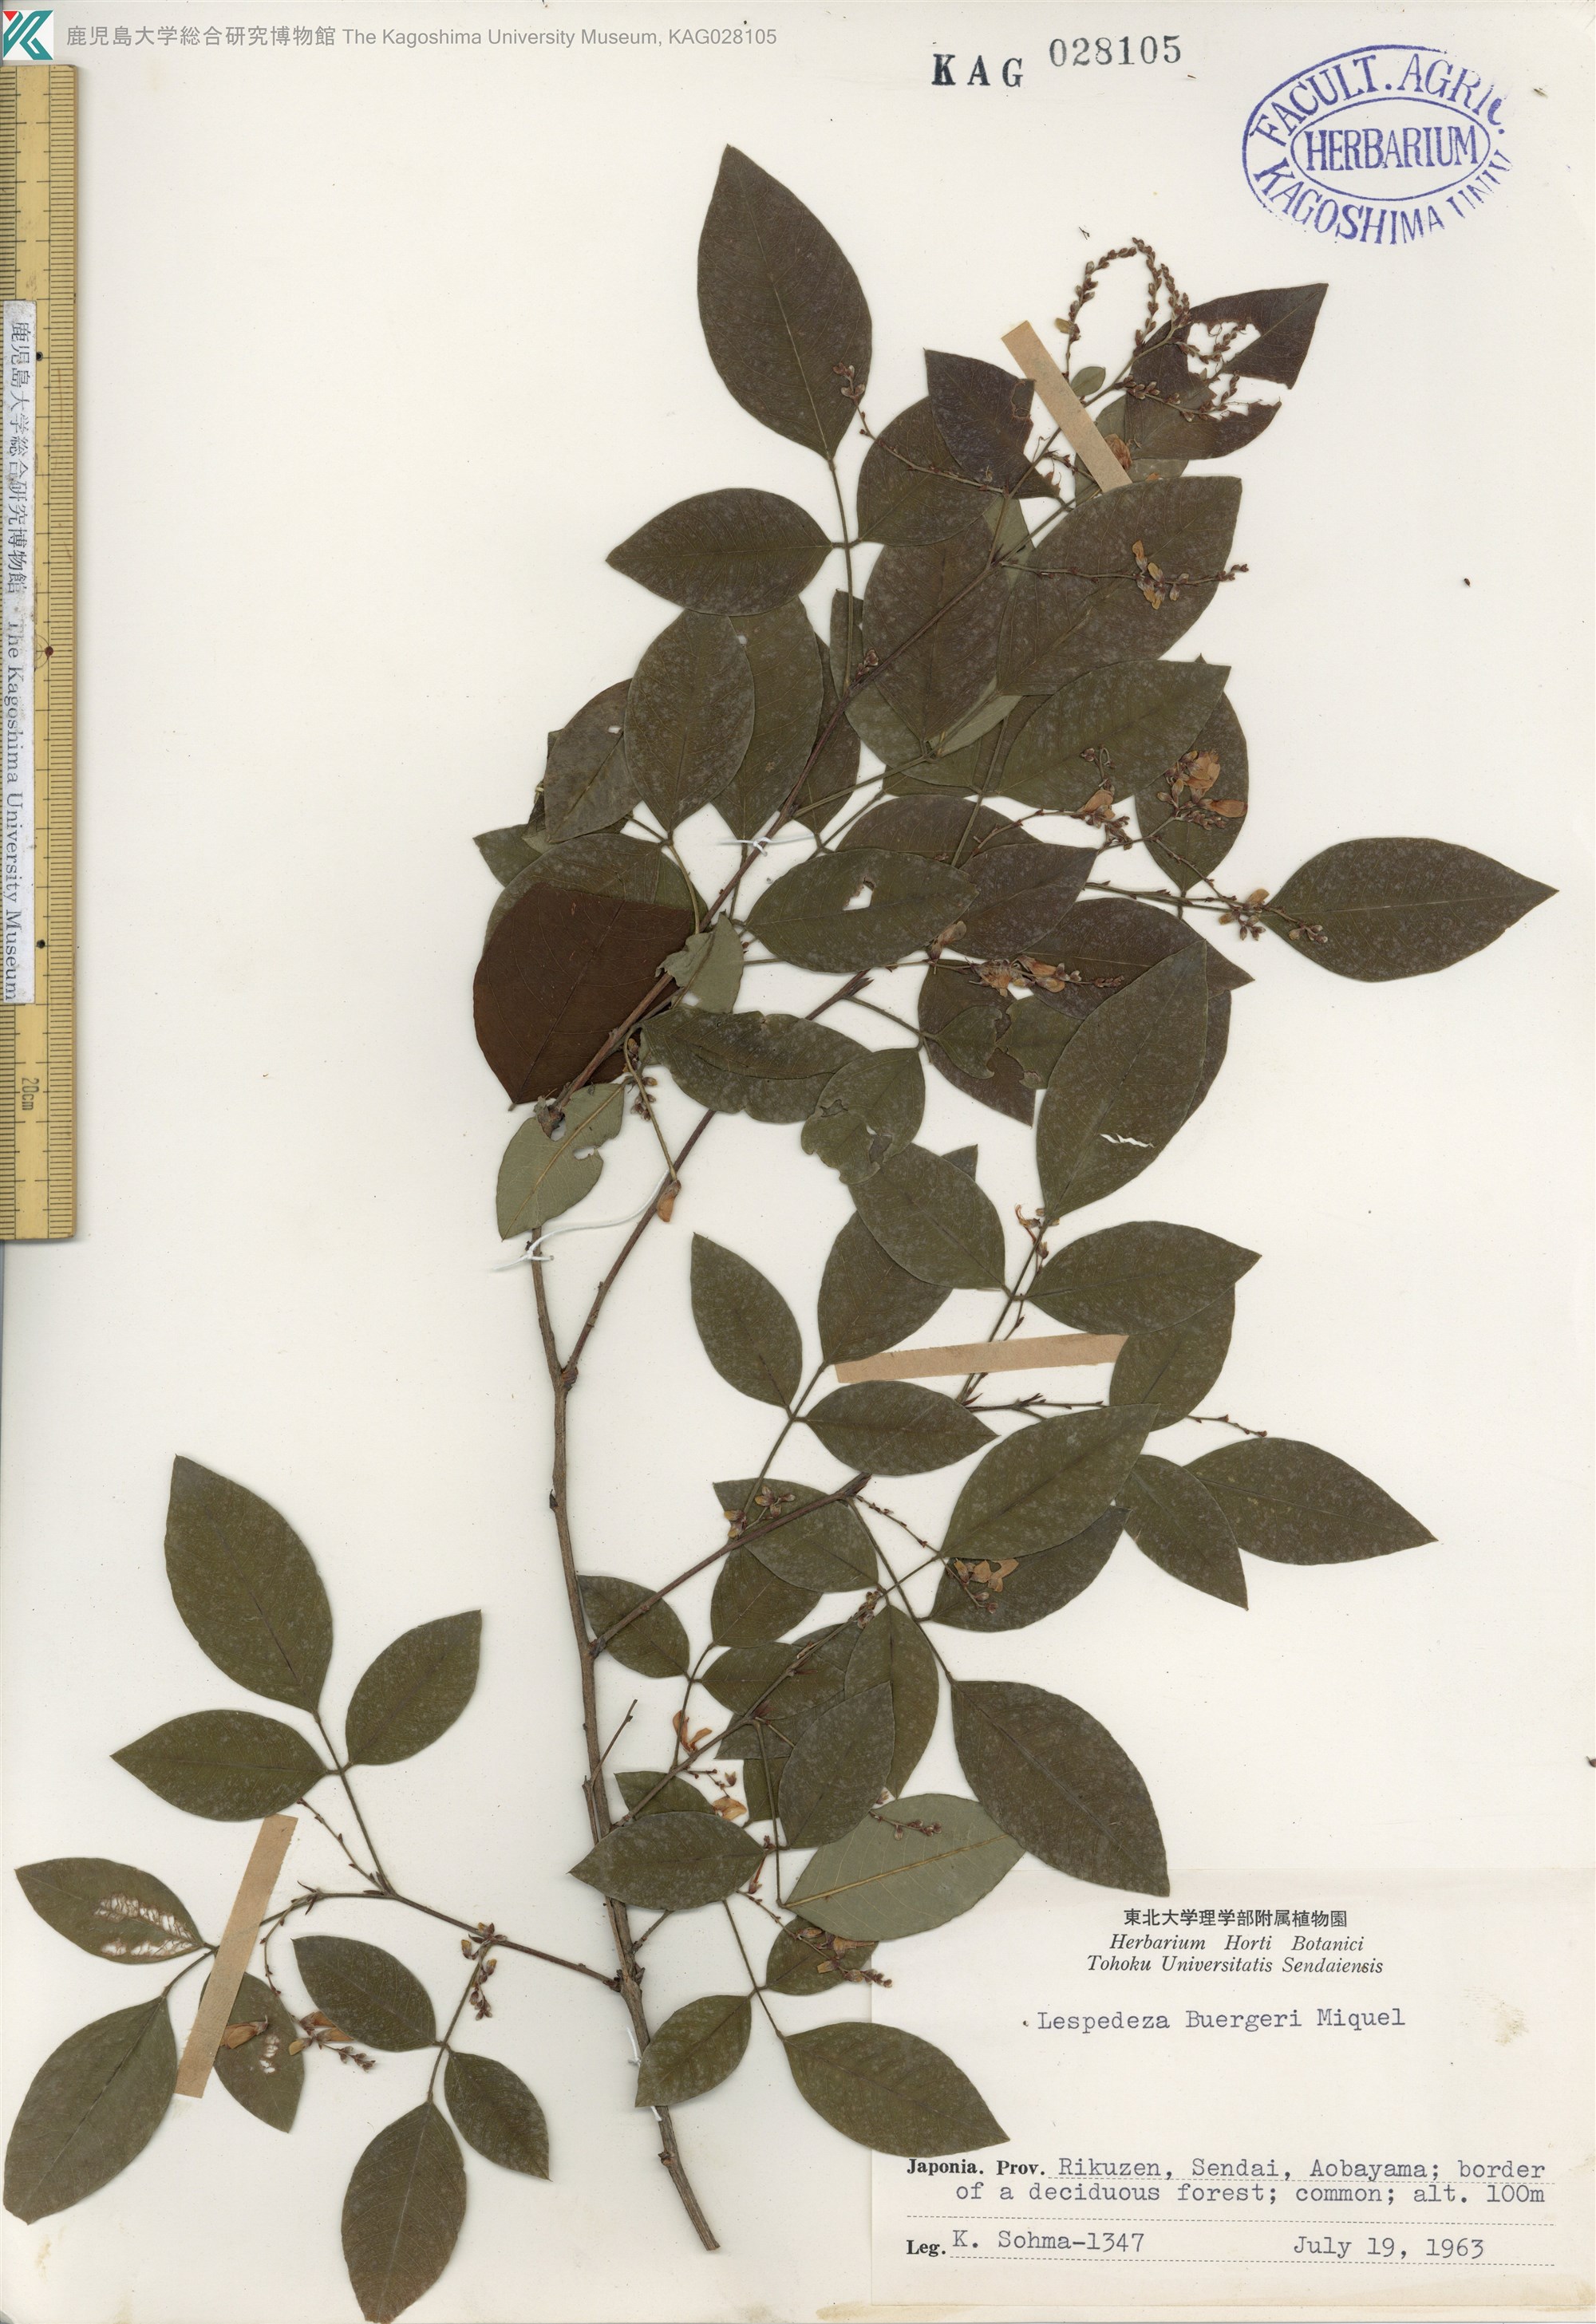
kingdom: Plantae
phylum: Tracheophyta
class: Magnoliopsida
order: Fabales
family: Fabaceae
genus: Lespedeza
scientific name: Lespedeza buergeri
